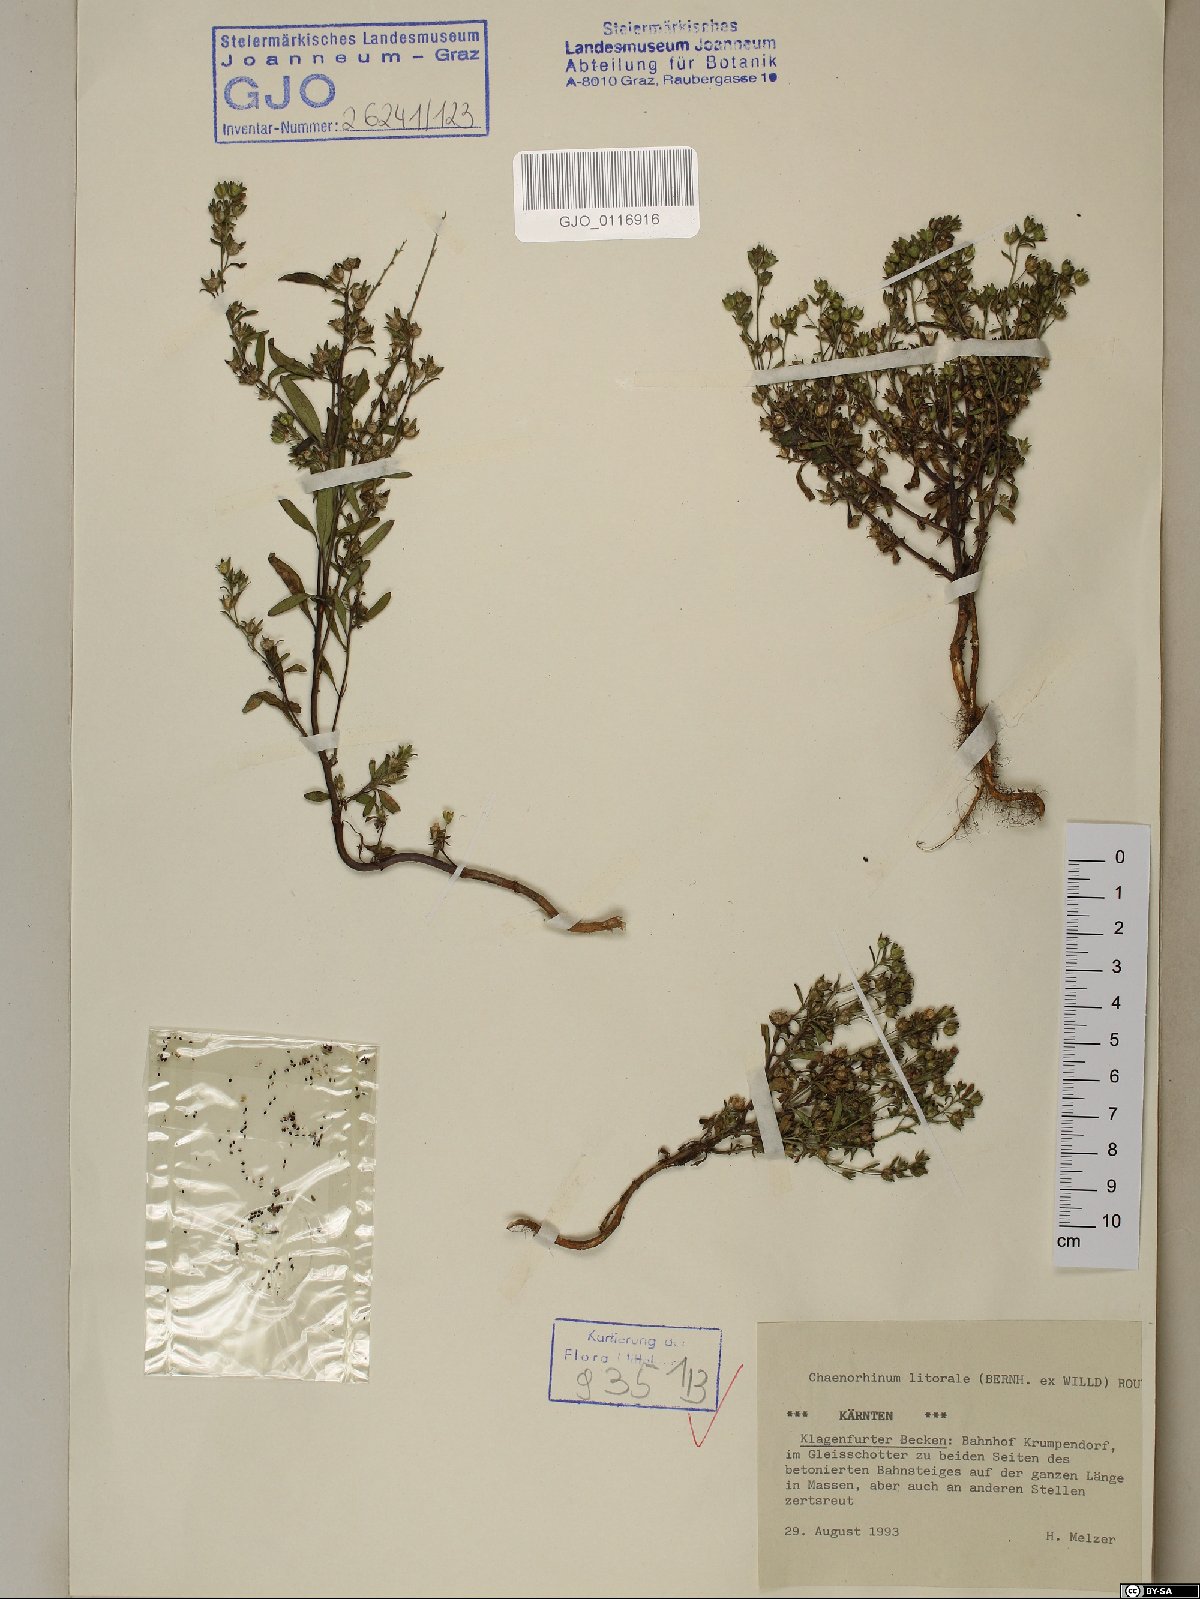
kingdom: Plantae
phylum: Tracheophyta
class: Magnoliopsida
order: Lamiales
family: Plantaginaceae
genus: Chaenorhinum
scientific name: Chaenorhinum litorale
